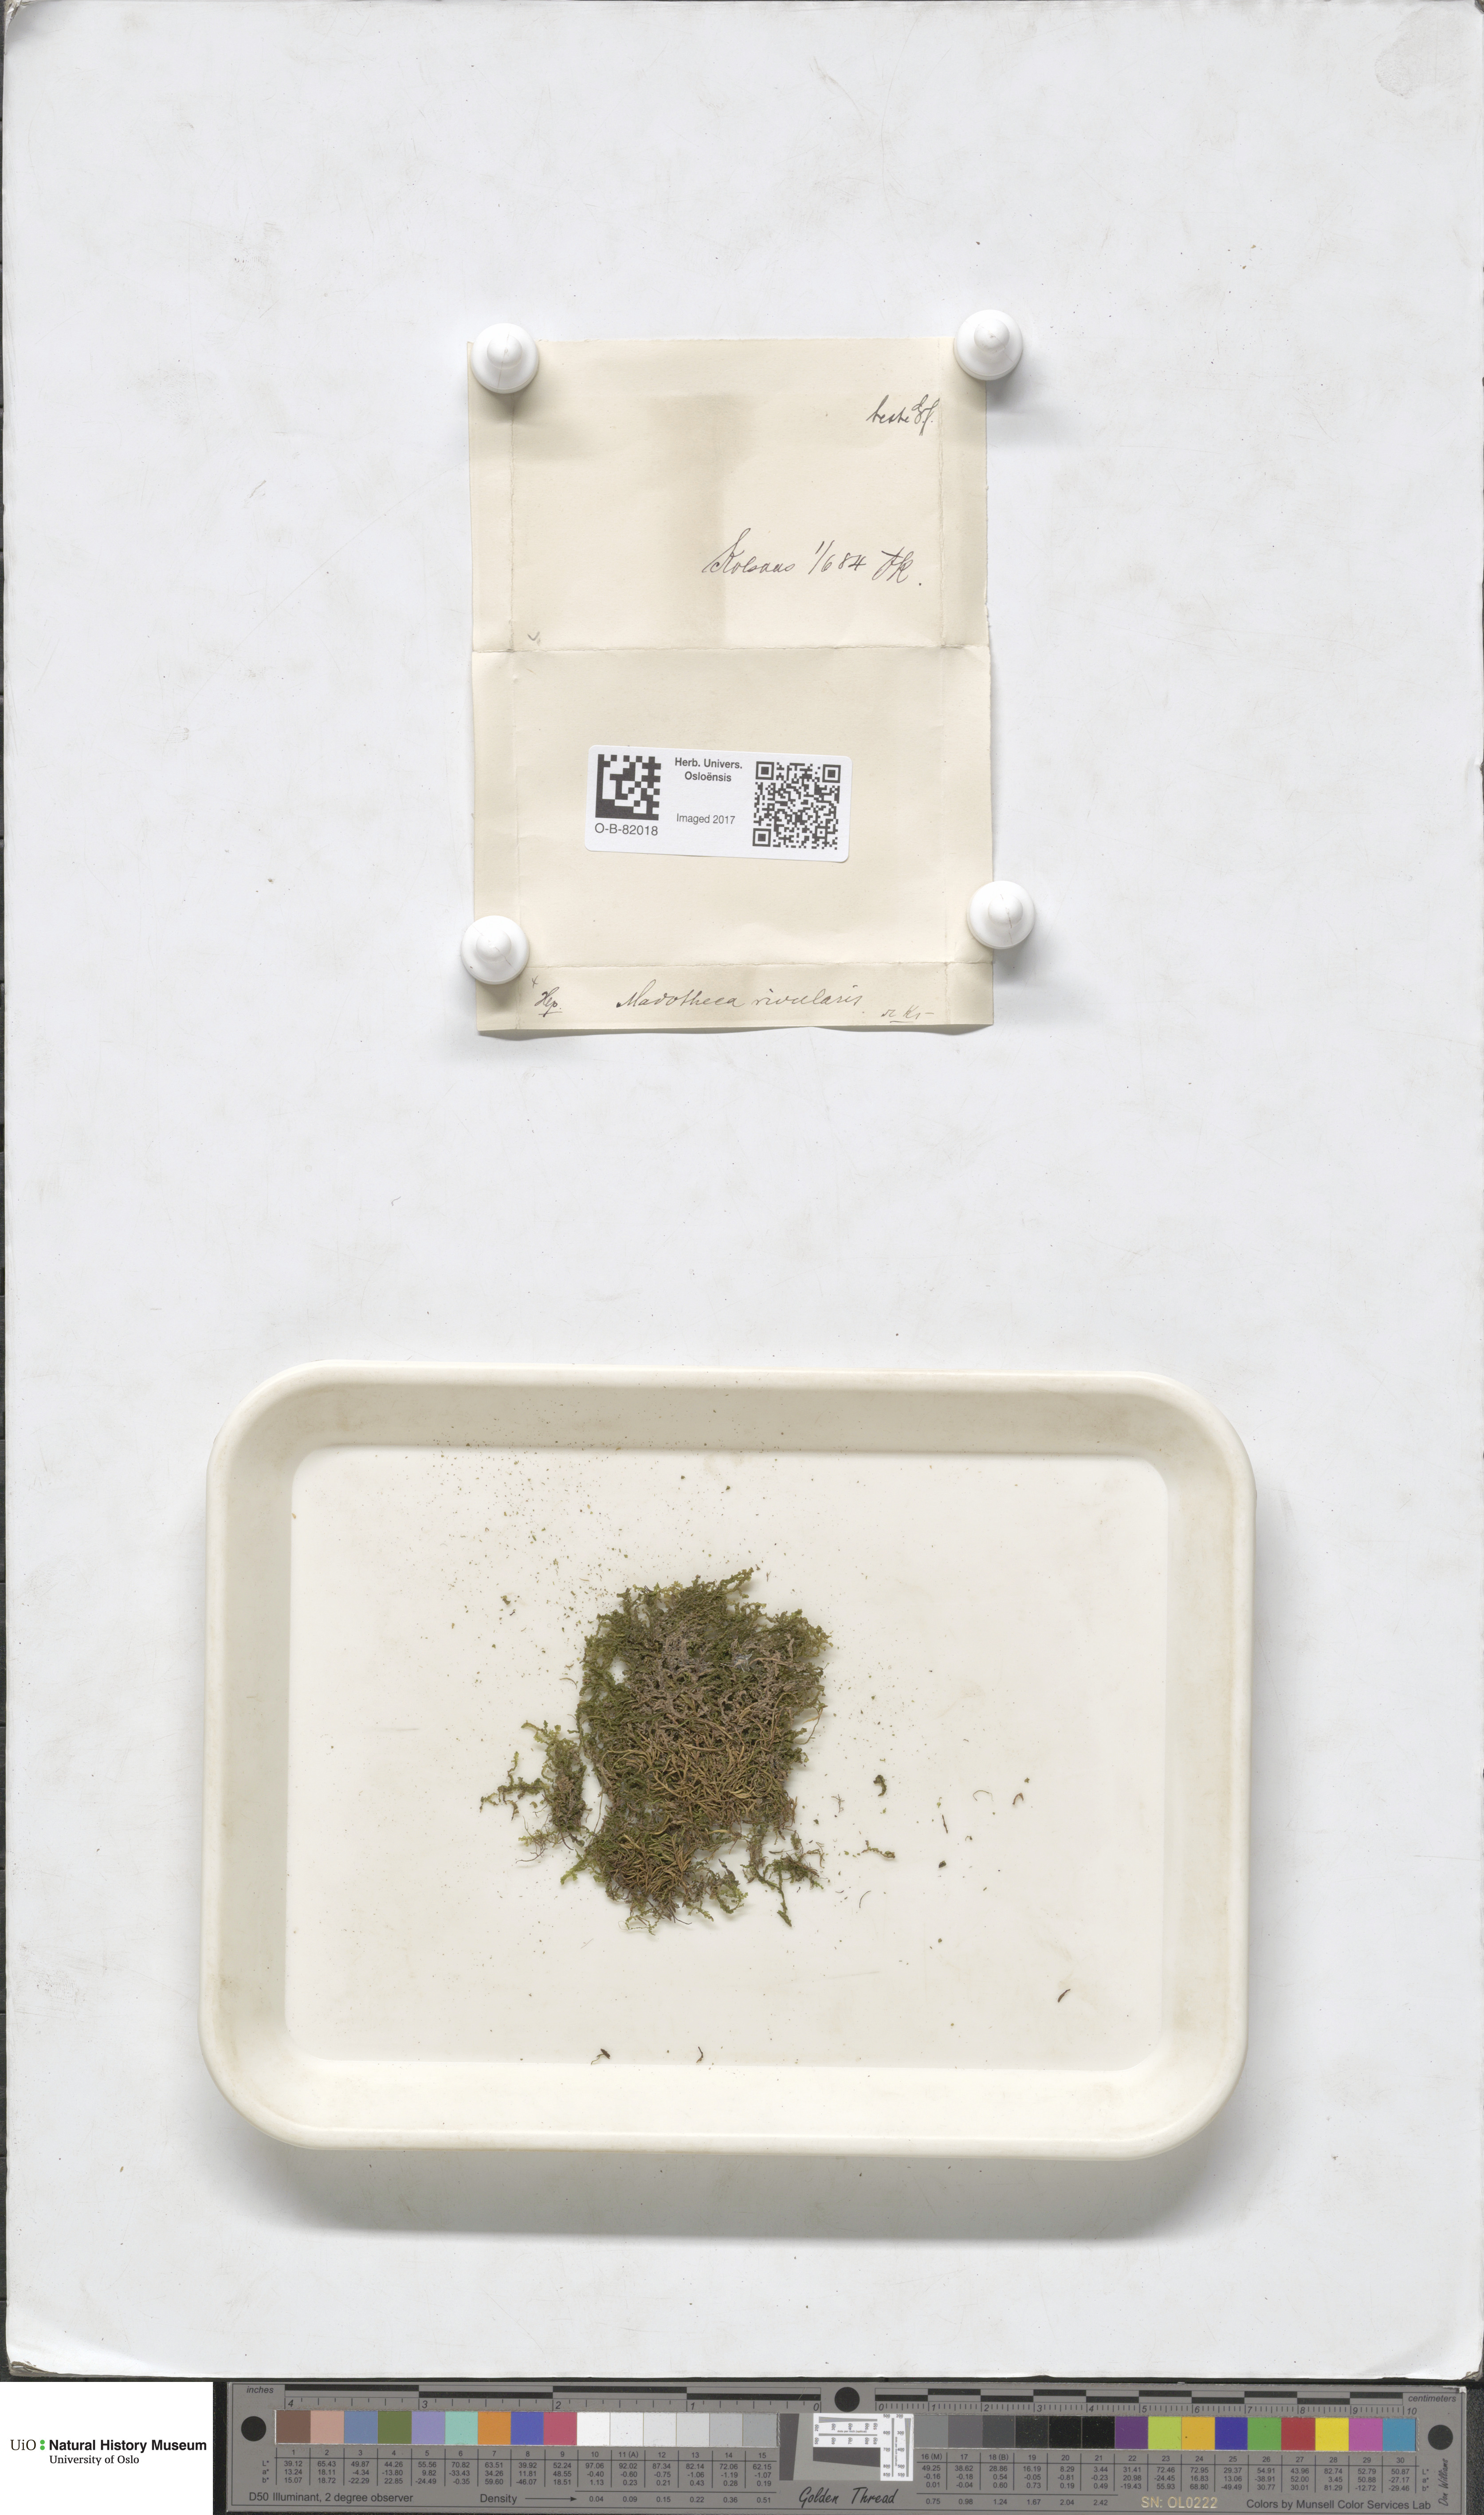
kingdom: Plantae
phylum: Marchantiophyta
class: Jungermanniopsida
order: Porellales
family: Porellaceae
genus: Porella
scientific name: Porella cordaeana
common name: Cliff scalewort
